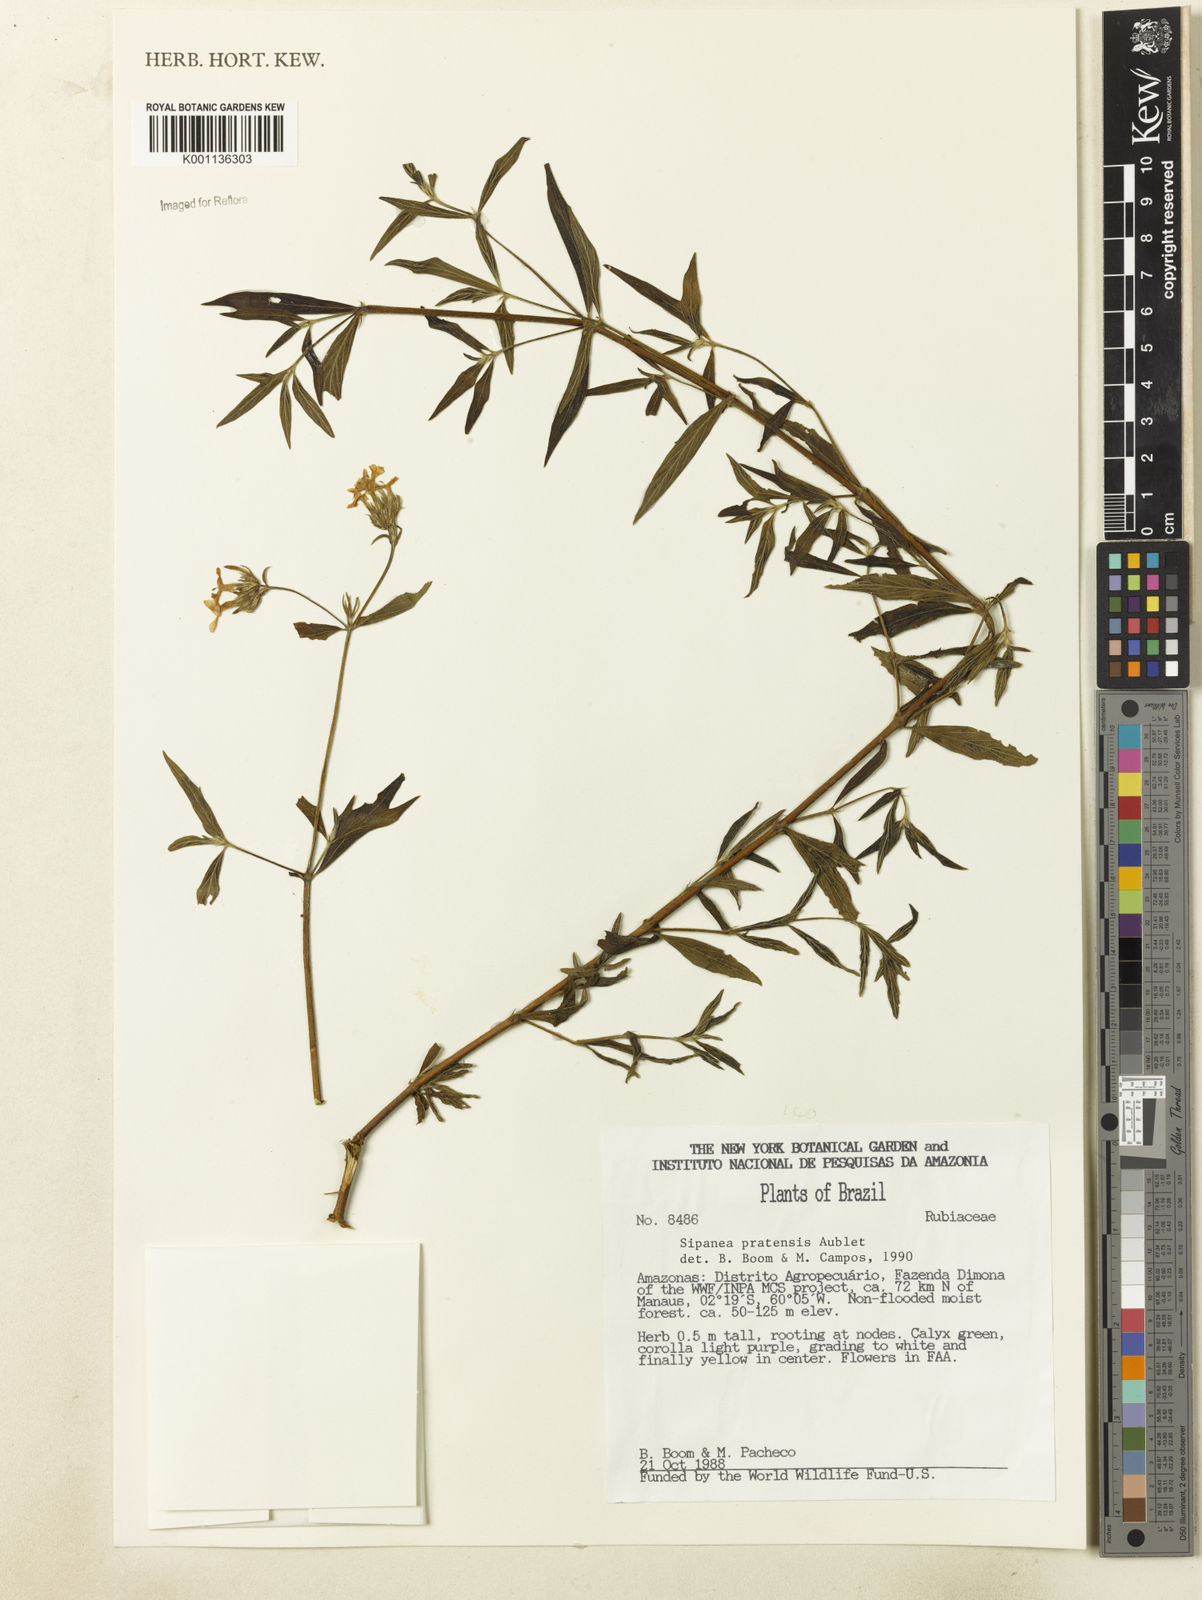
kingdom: Plantae
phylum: Tracheophyta
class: Magnoliopsida
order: Gentianales
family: Rubiaceae
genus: Sipanea
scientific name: Sipanea pratensis
